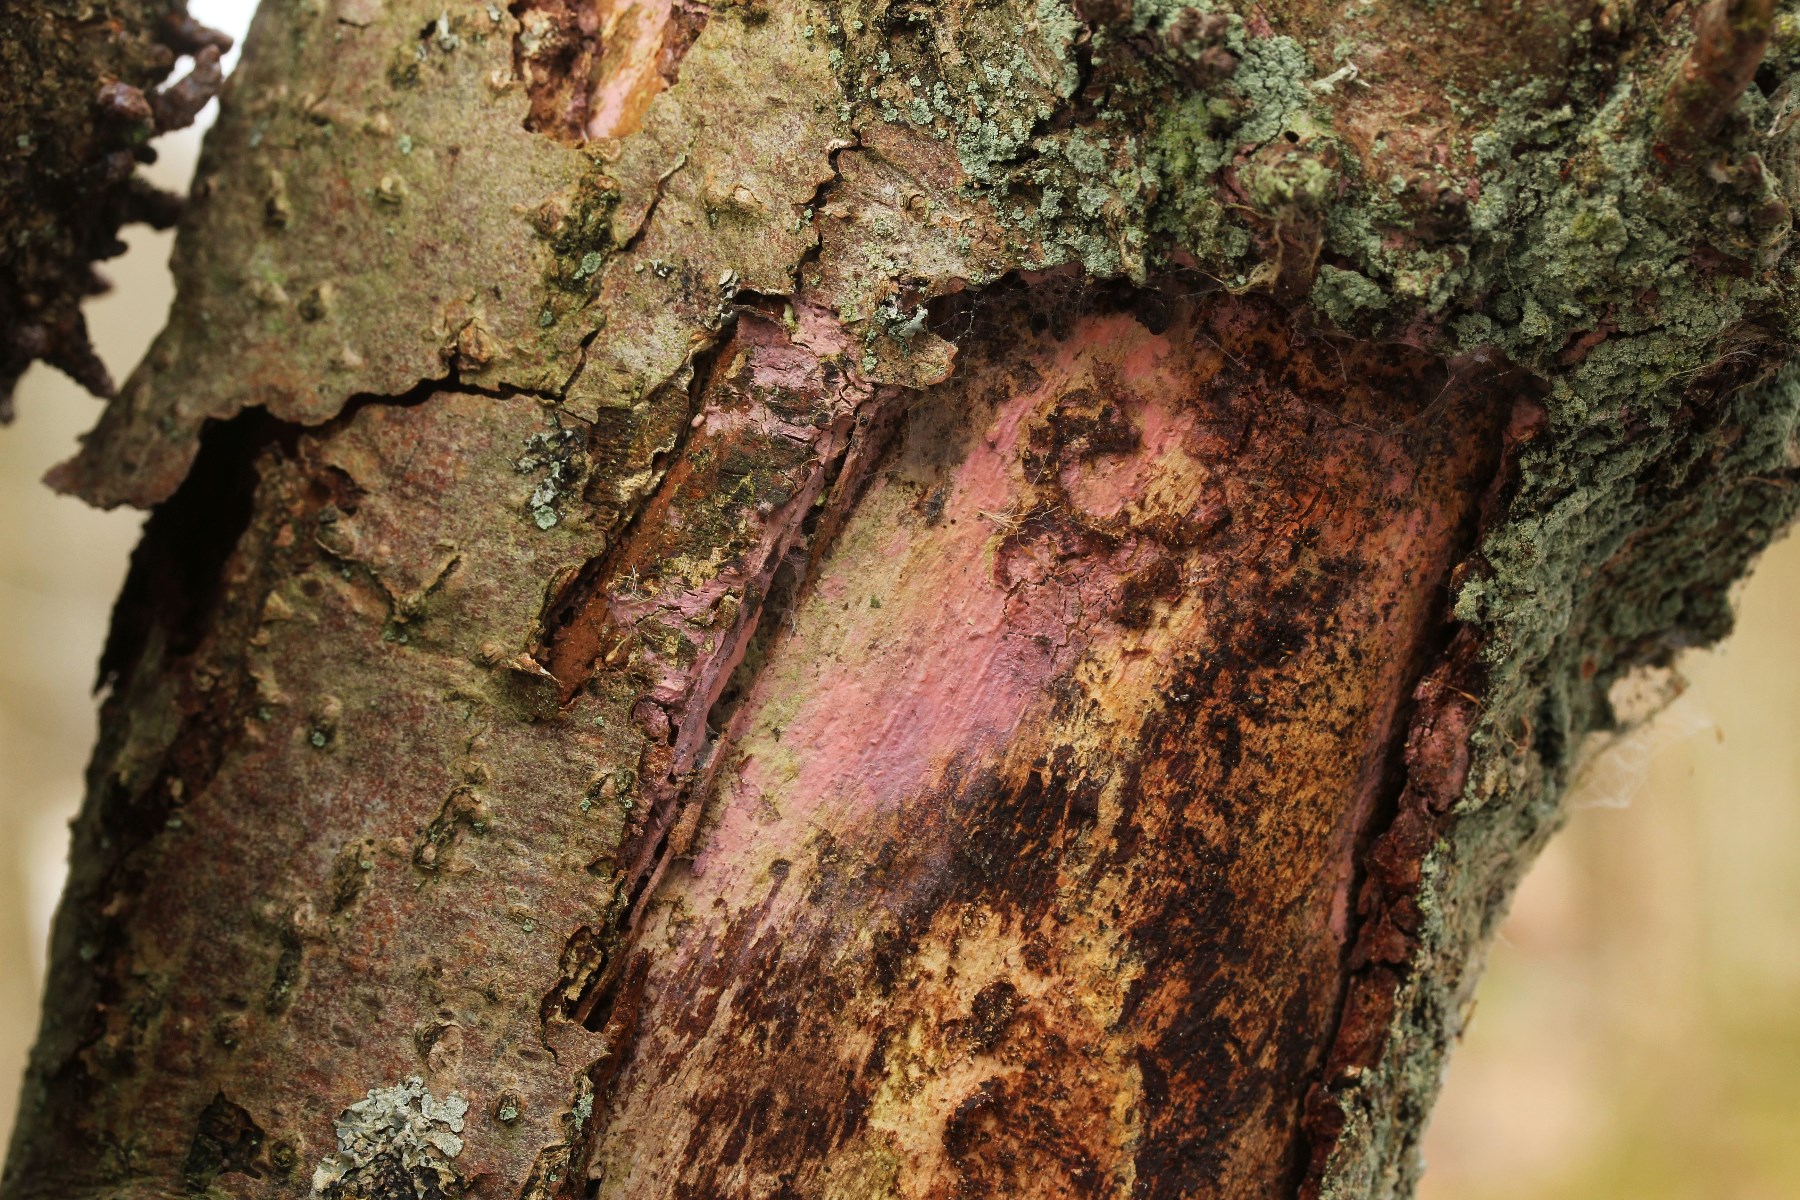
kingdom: Fungi
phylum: Basidiomycota
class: Agaricomycetes
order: Cantharellales
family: Tulasnellaceae
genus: Tulasnella
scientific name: Tulasnella violea
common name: violet ballonhinde
